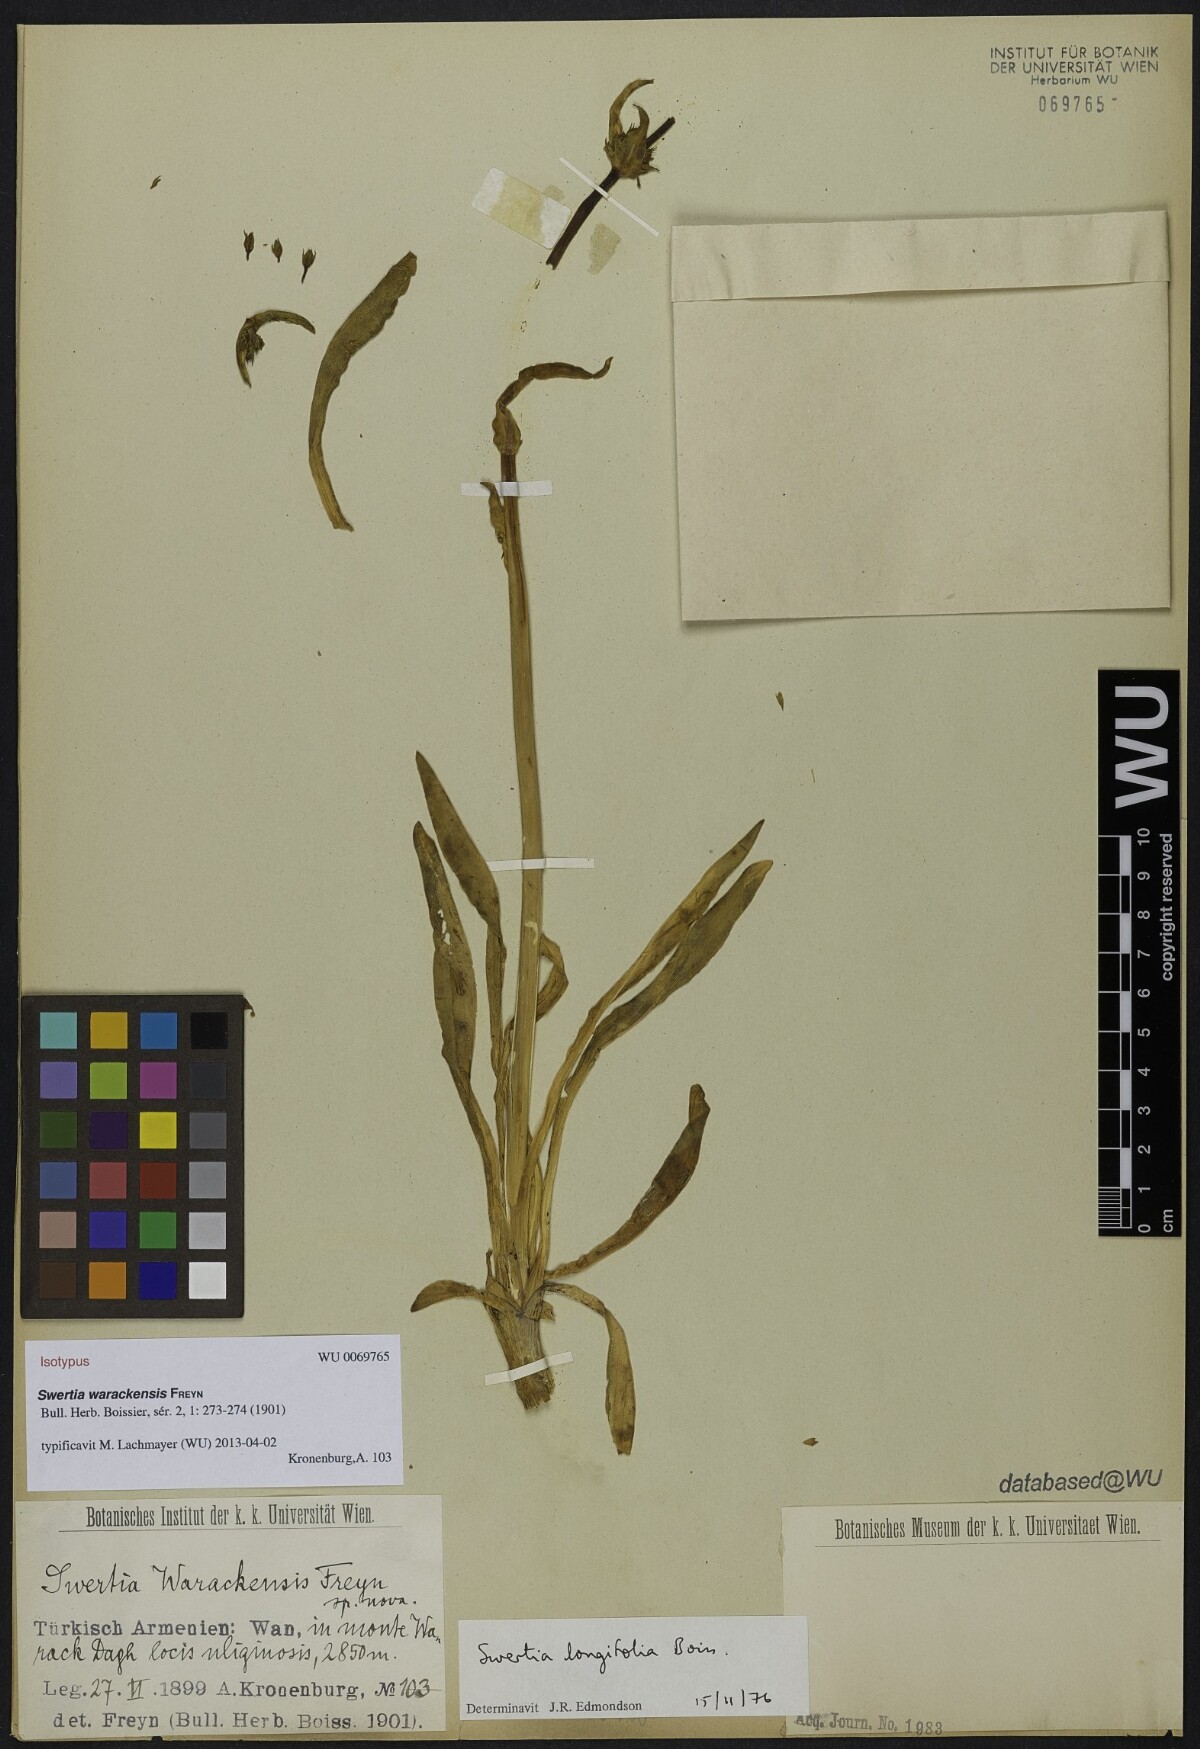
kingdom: Plantae
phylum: Tracheophyta
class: Magnoliopsida
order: Gentianales
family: Gentianaceae
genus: Swertia
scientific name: Swertia longifolia
